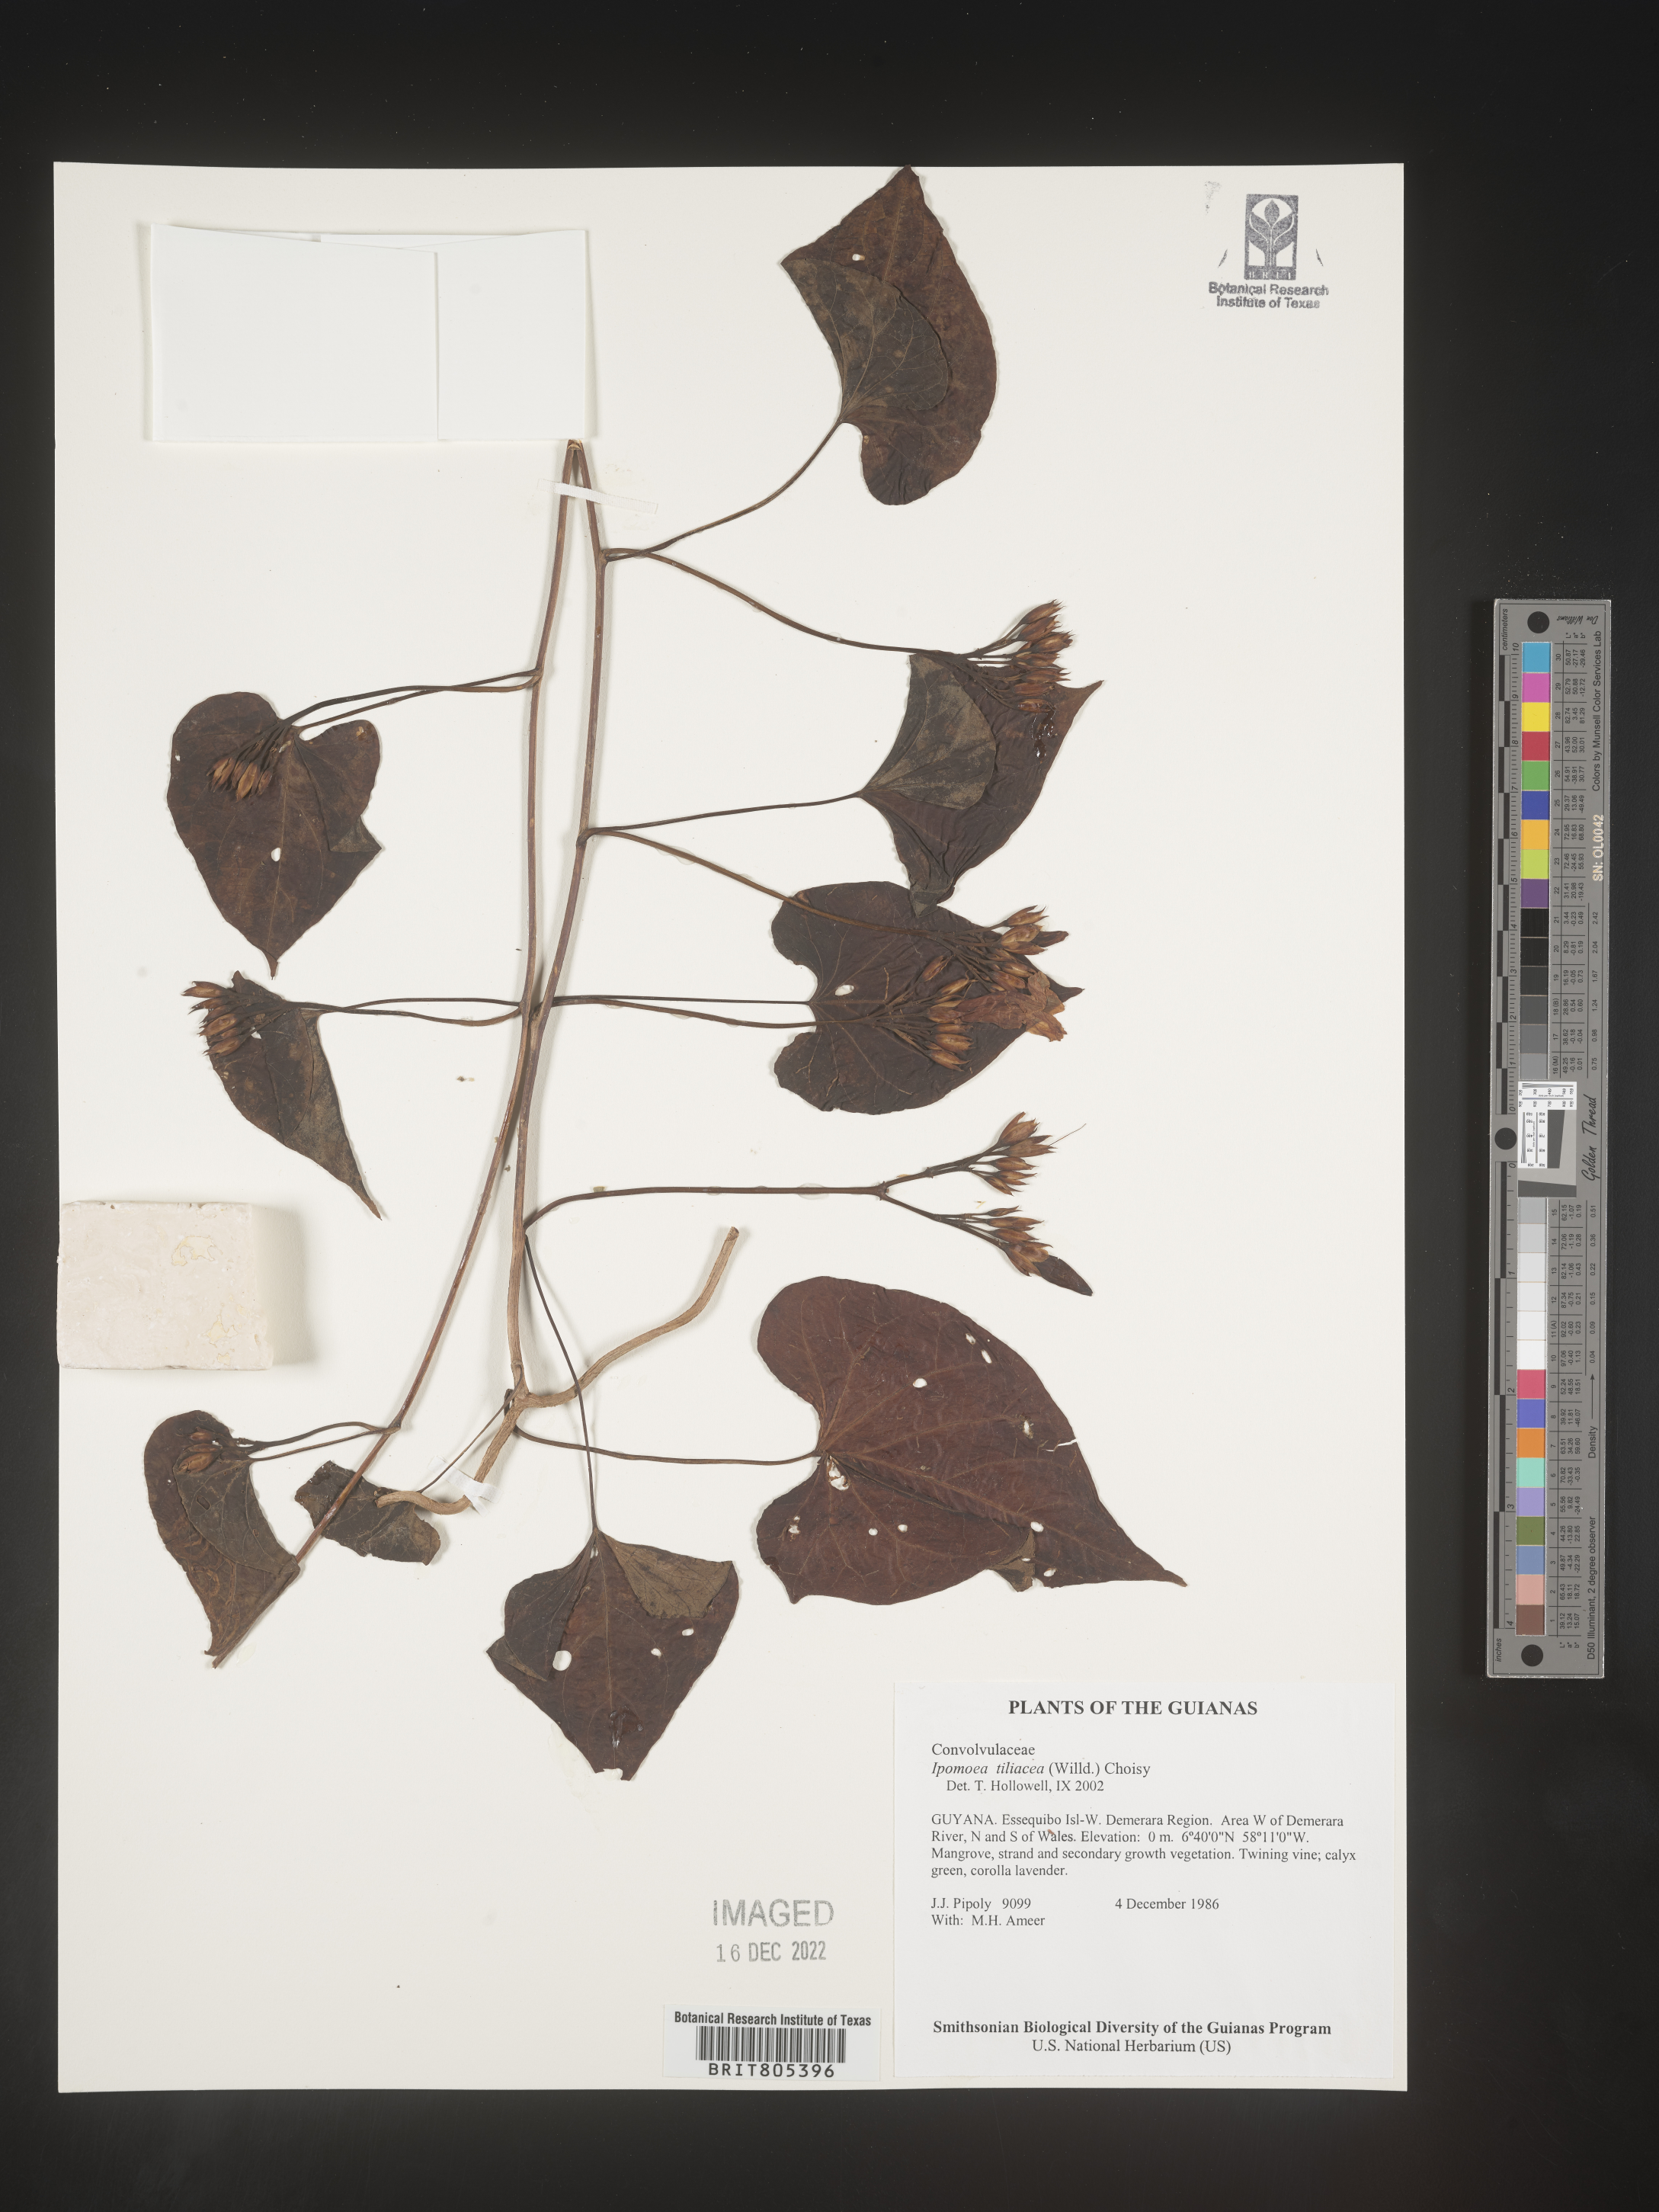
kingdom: Plantae
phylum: Tracheophyta
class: Magnoliopsida
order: Solanales
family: Convolvulaceae
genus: Ipomoea
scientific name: Ipomoea
